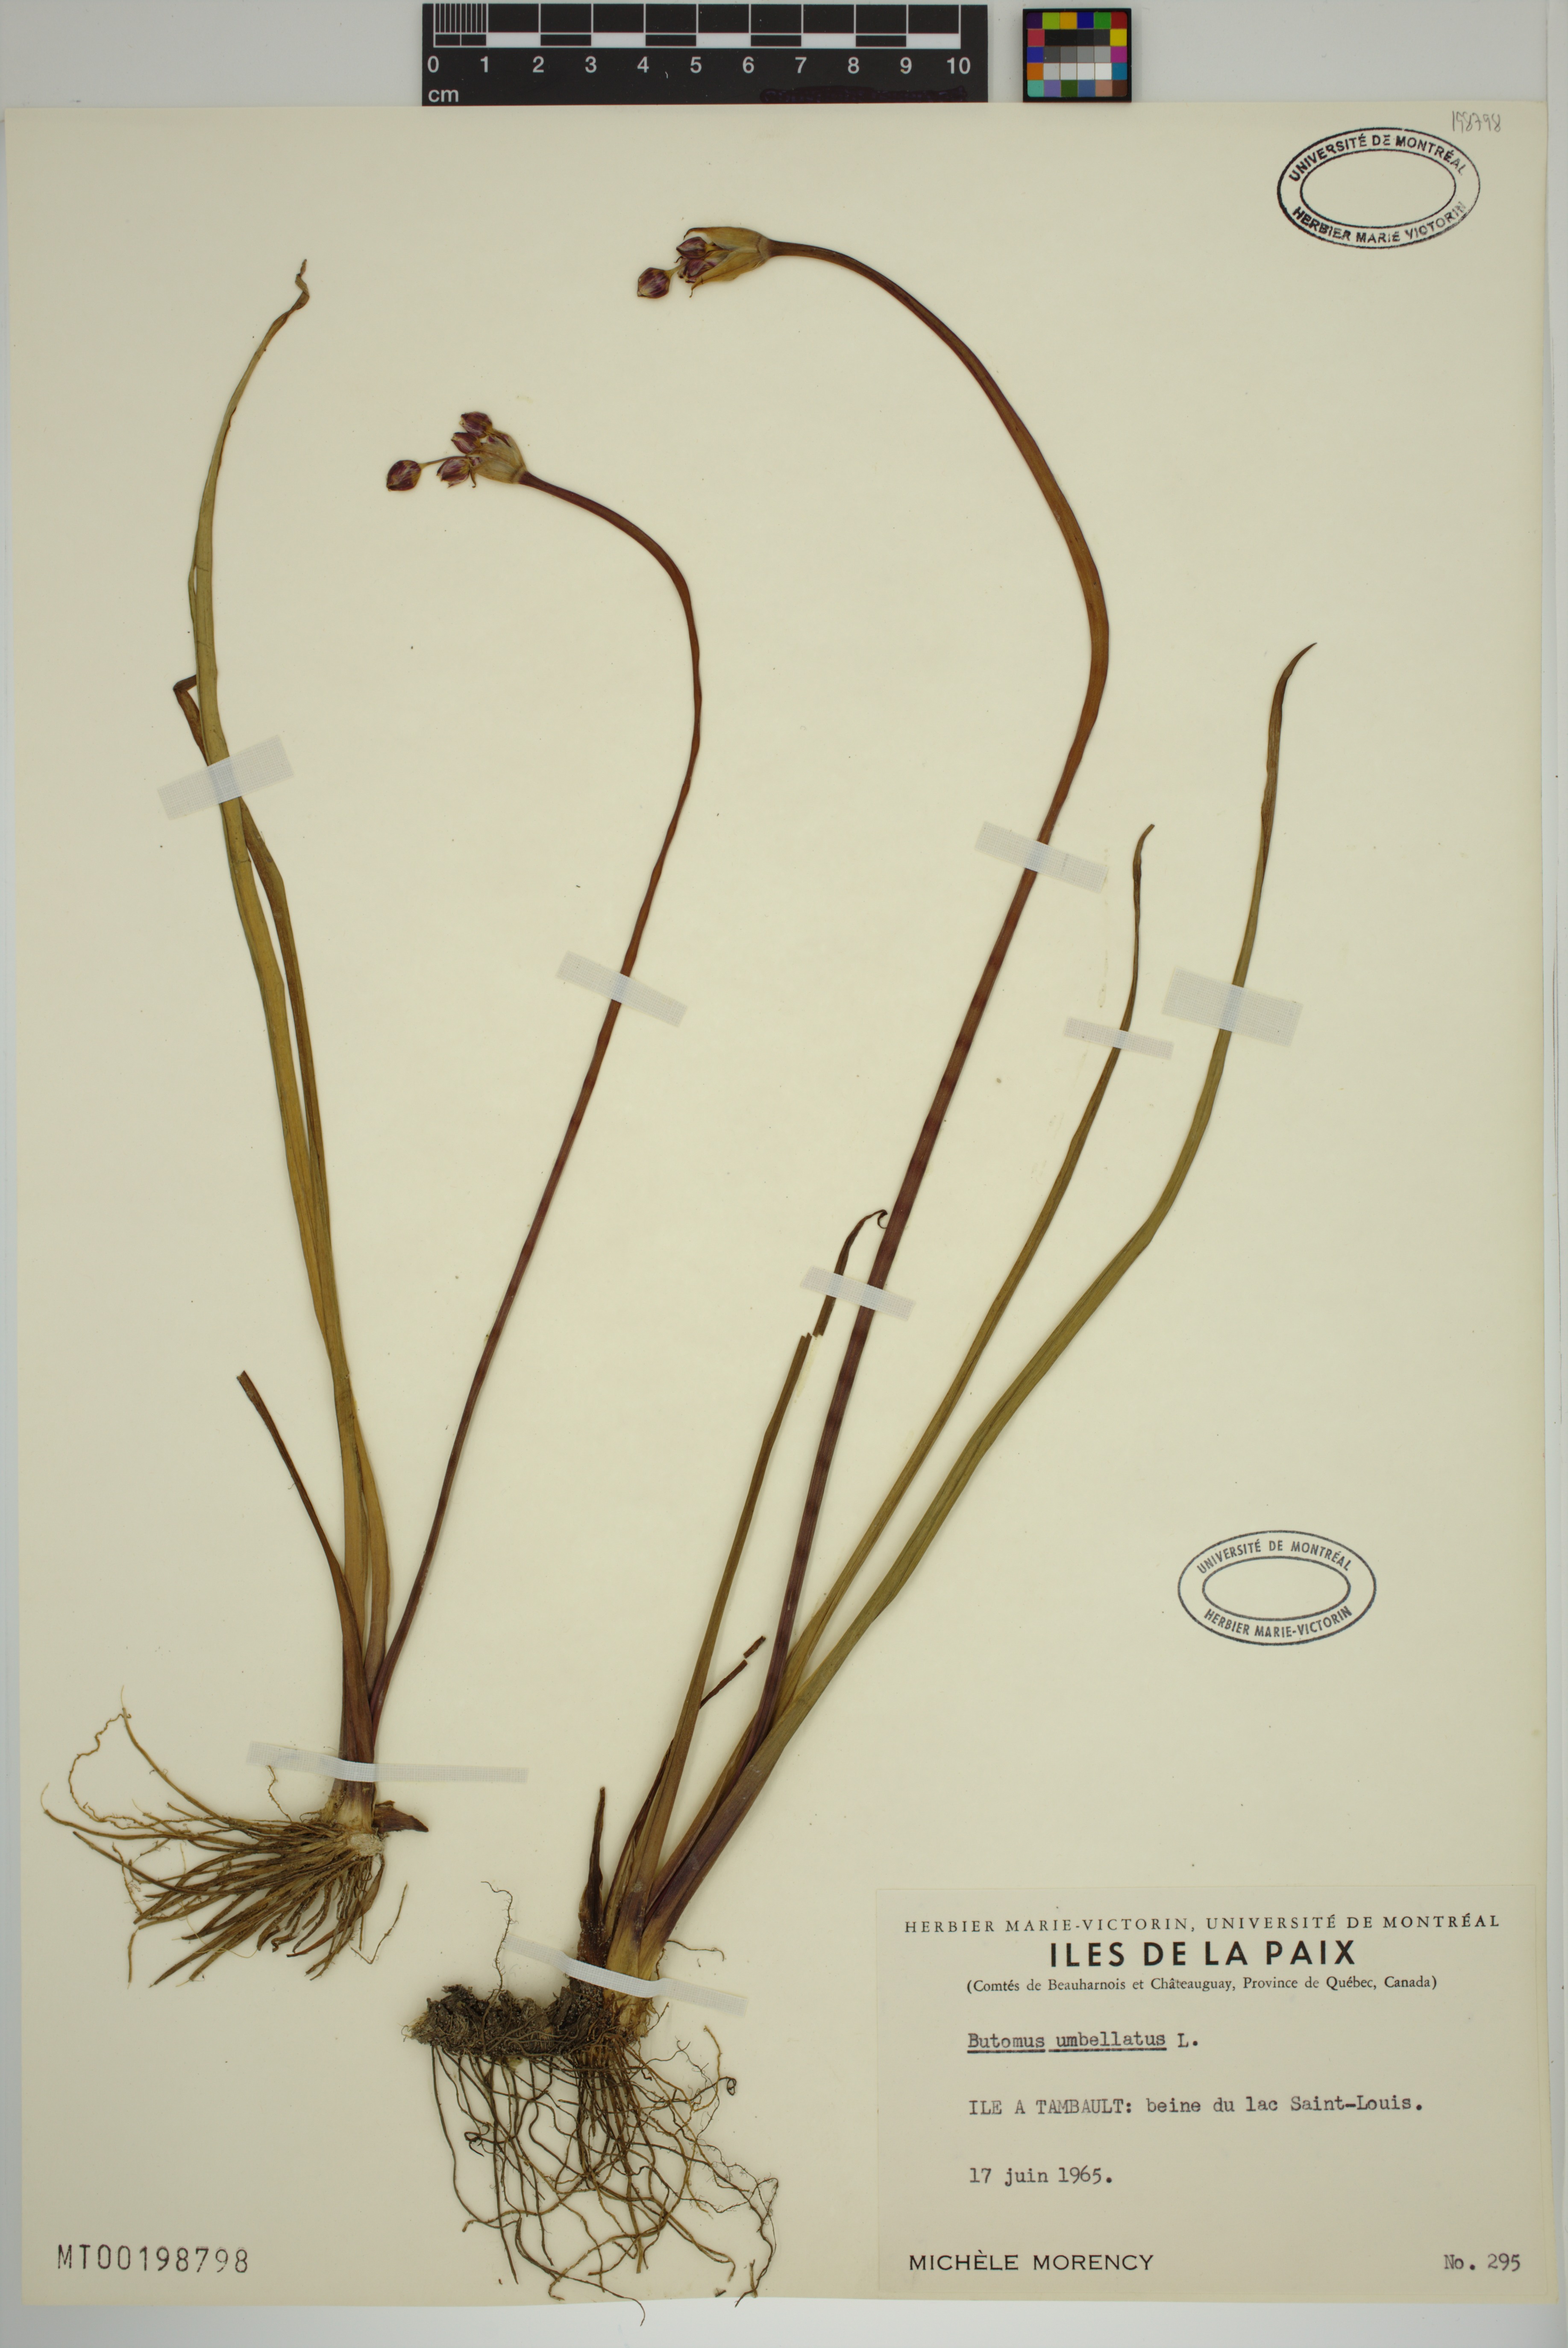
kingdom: Plantae
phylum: Tracheophyta
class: Liliopsida
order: Alismatales
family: Butomaceae
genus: Butomus
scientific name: Butomus umbellatus
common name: Flowering-rush
